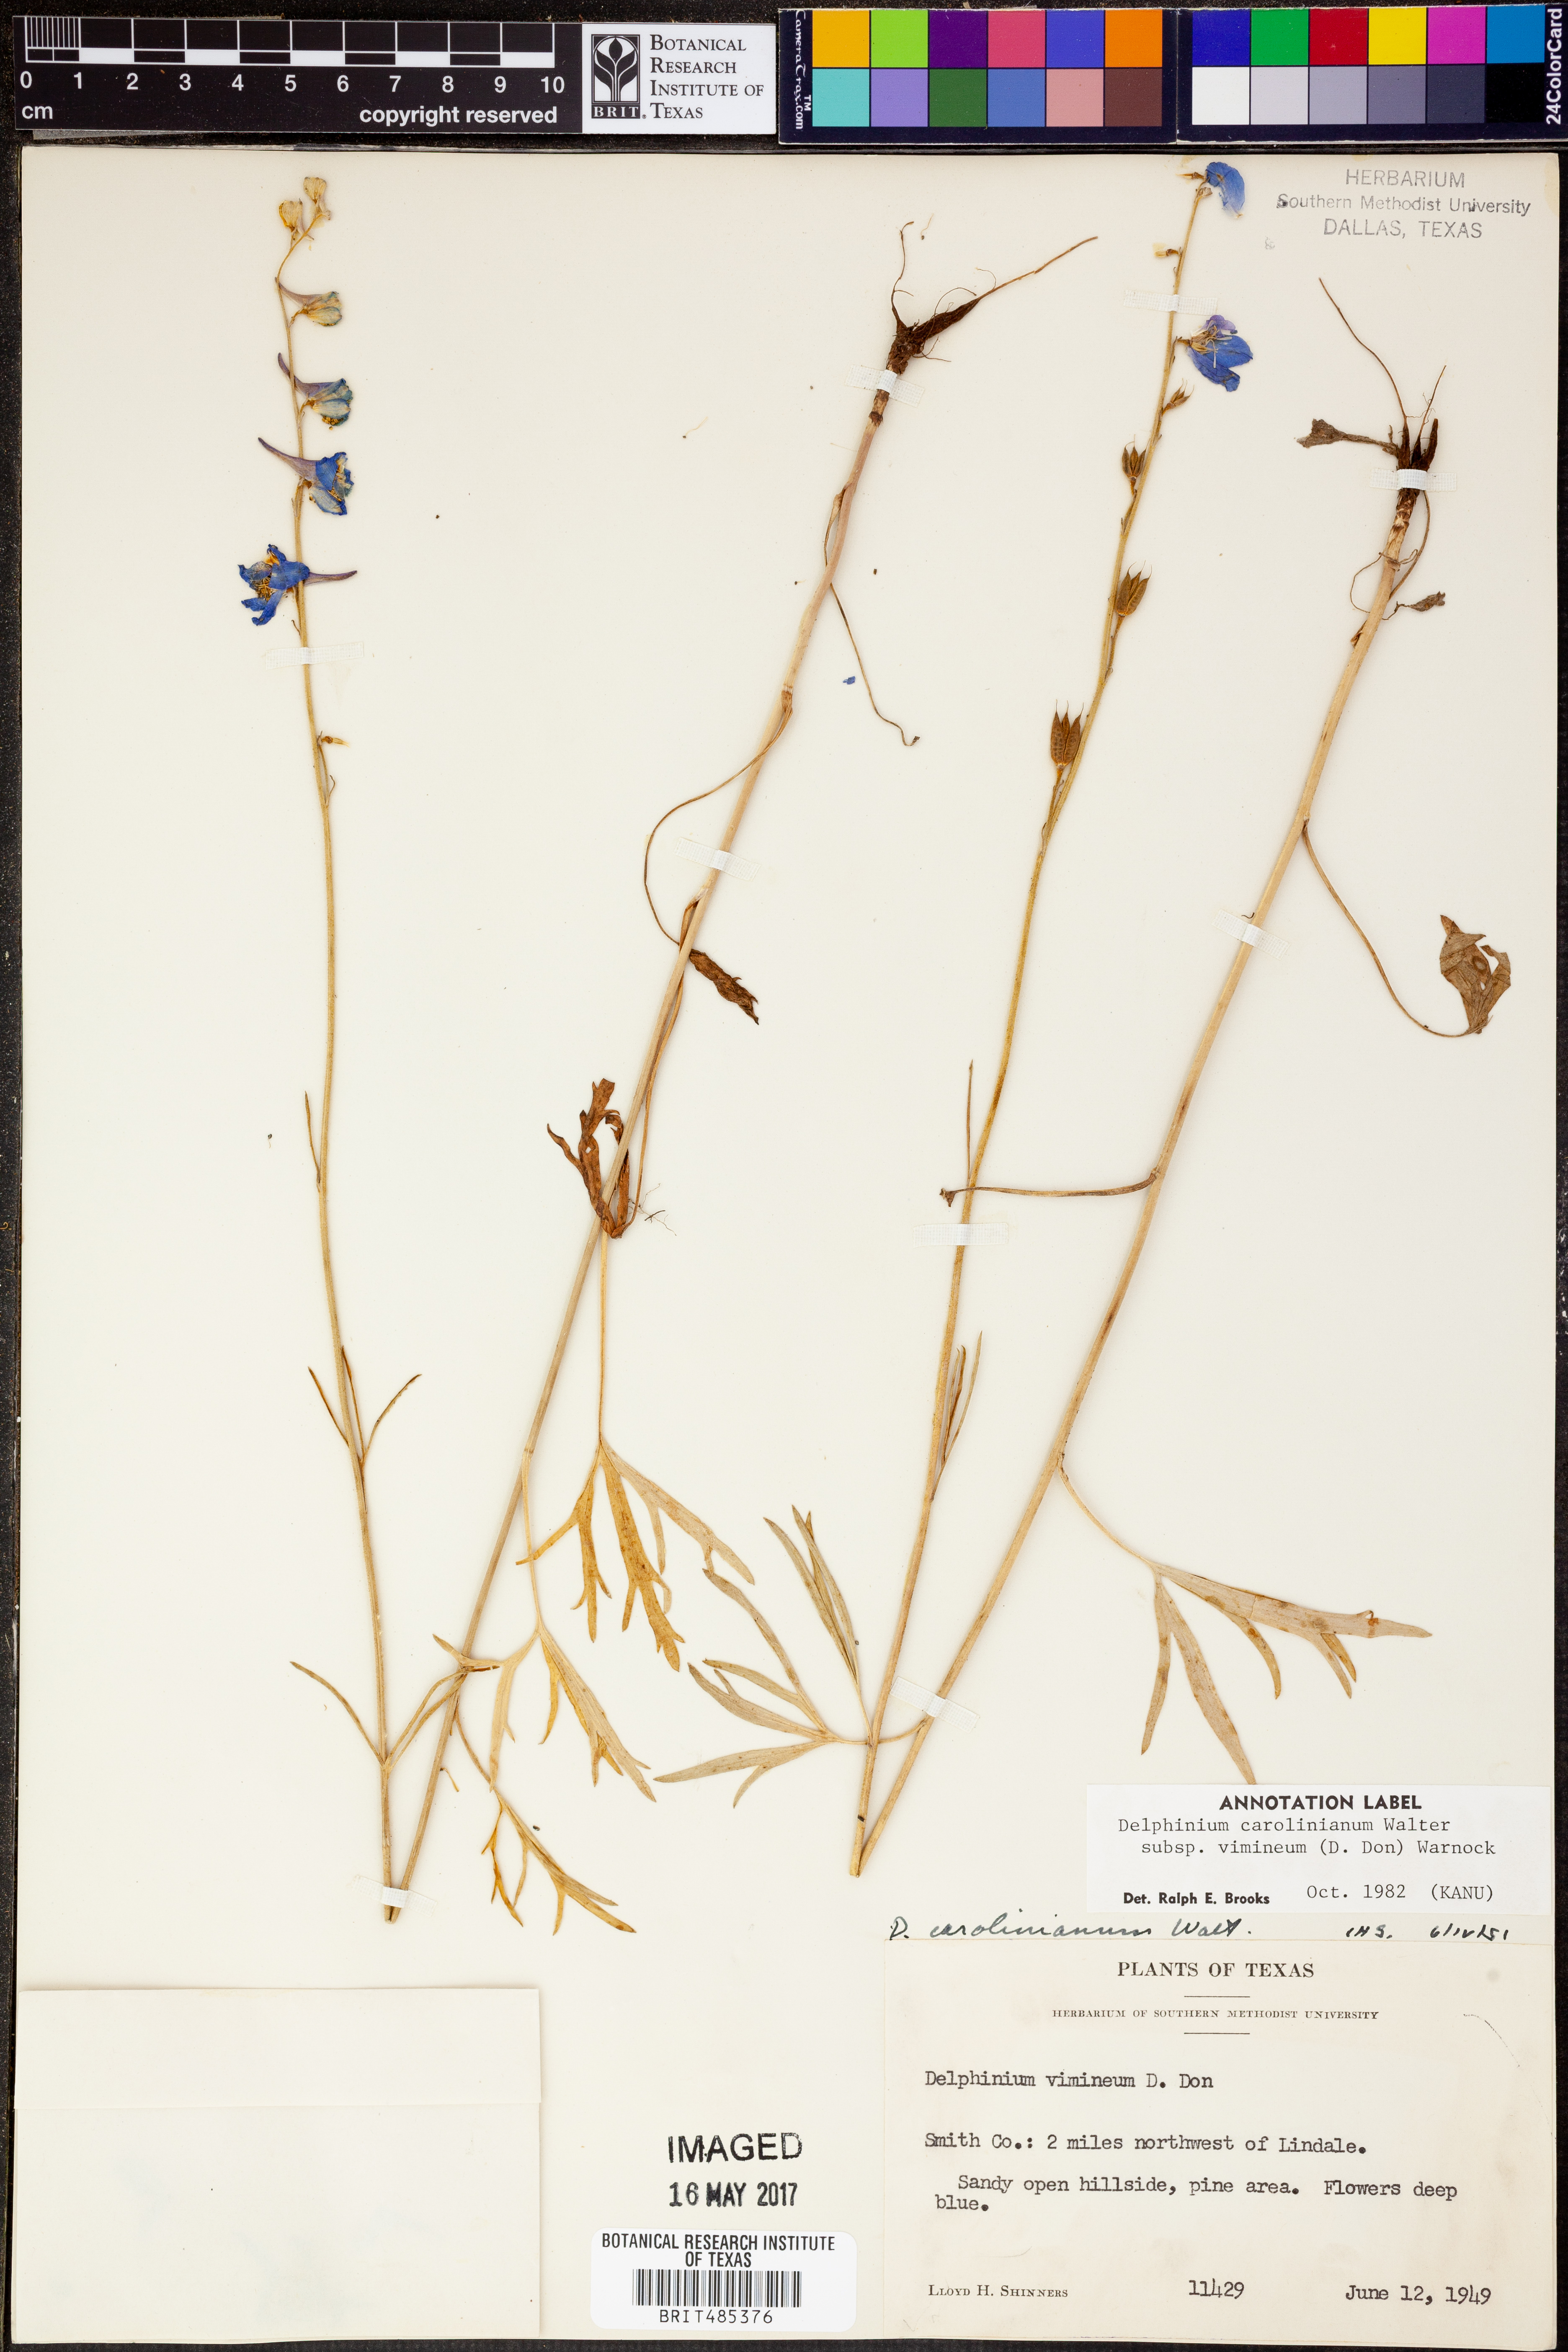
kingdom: Plantae
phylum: Tracheophyta
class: Magnoliopsida
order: Ranunculales
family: Ranunculaceae
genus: Delphinium
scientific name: Delphinium carolinianum
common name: Carolina larkspur
